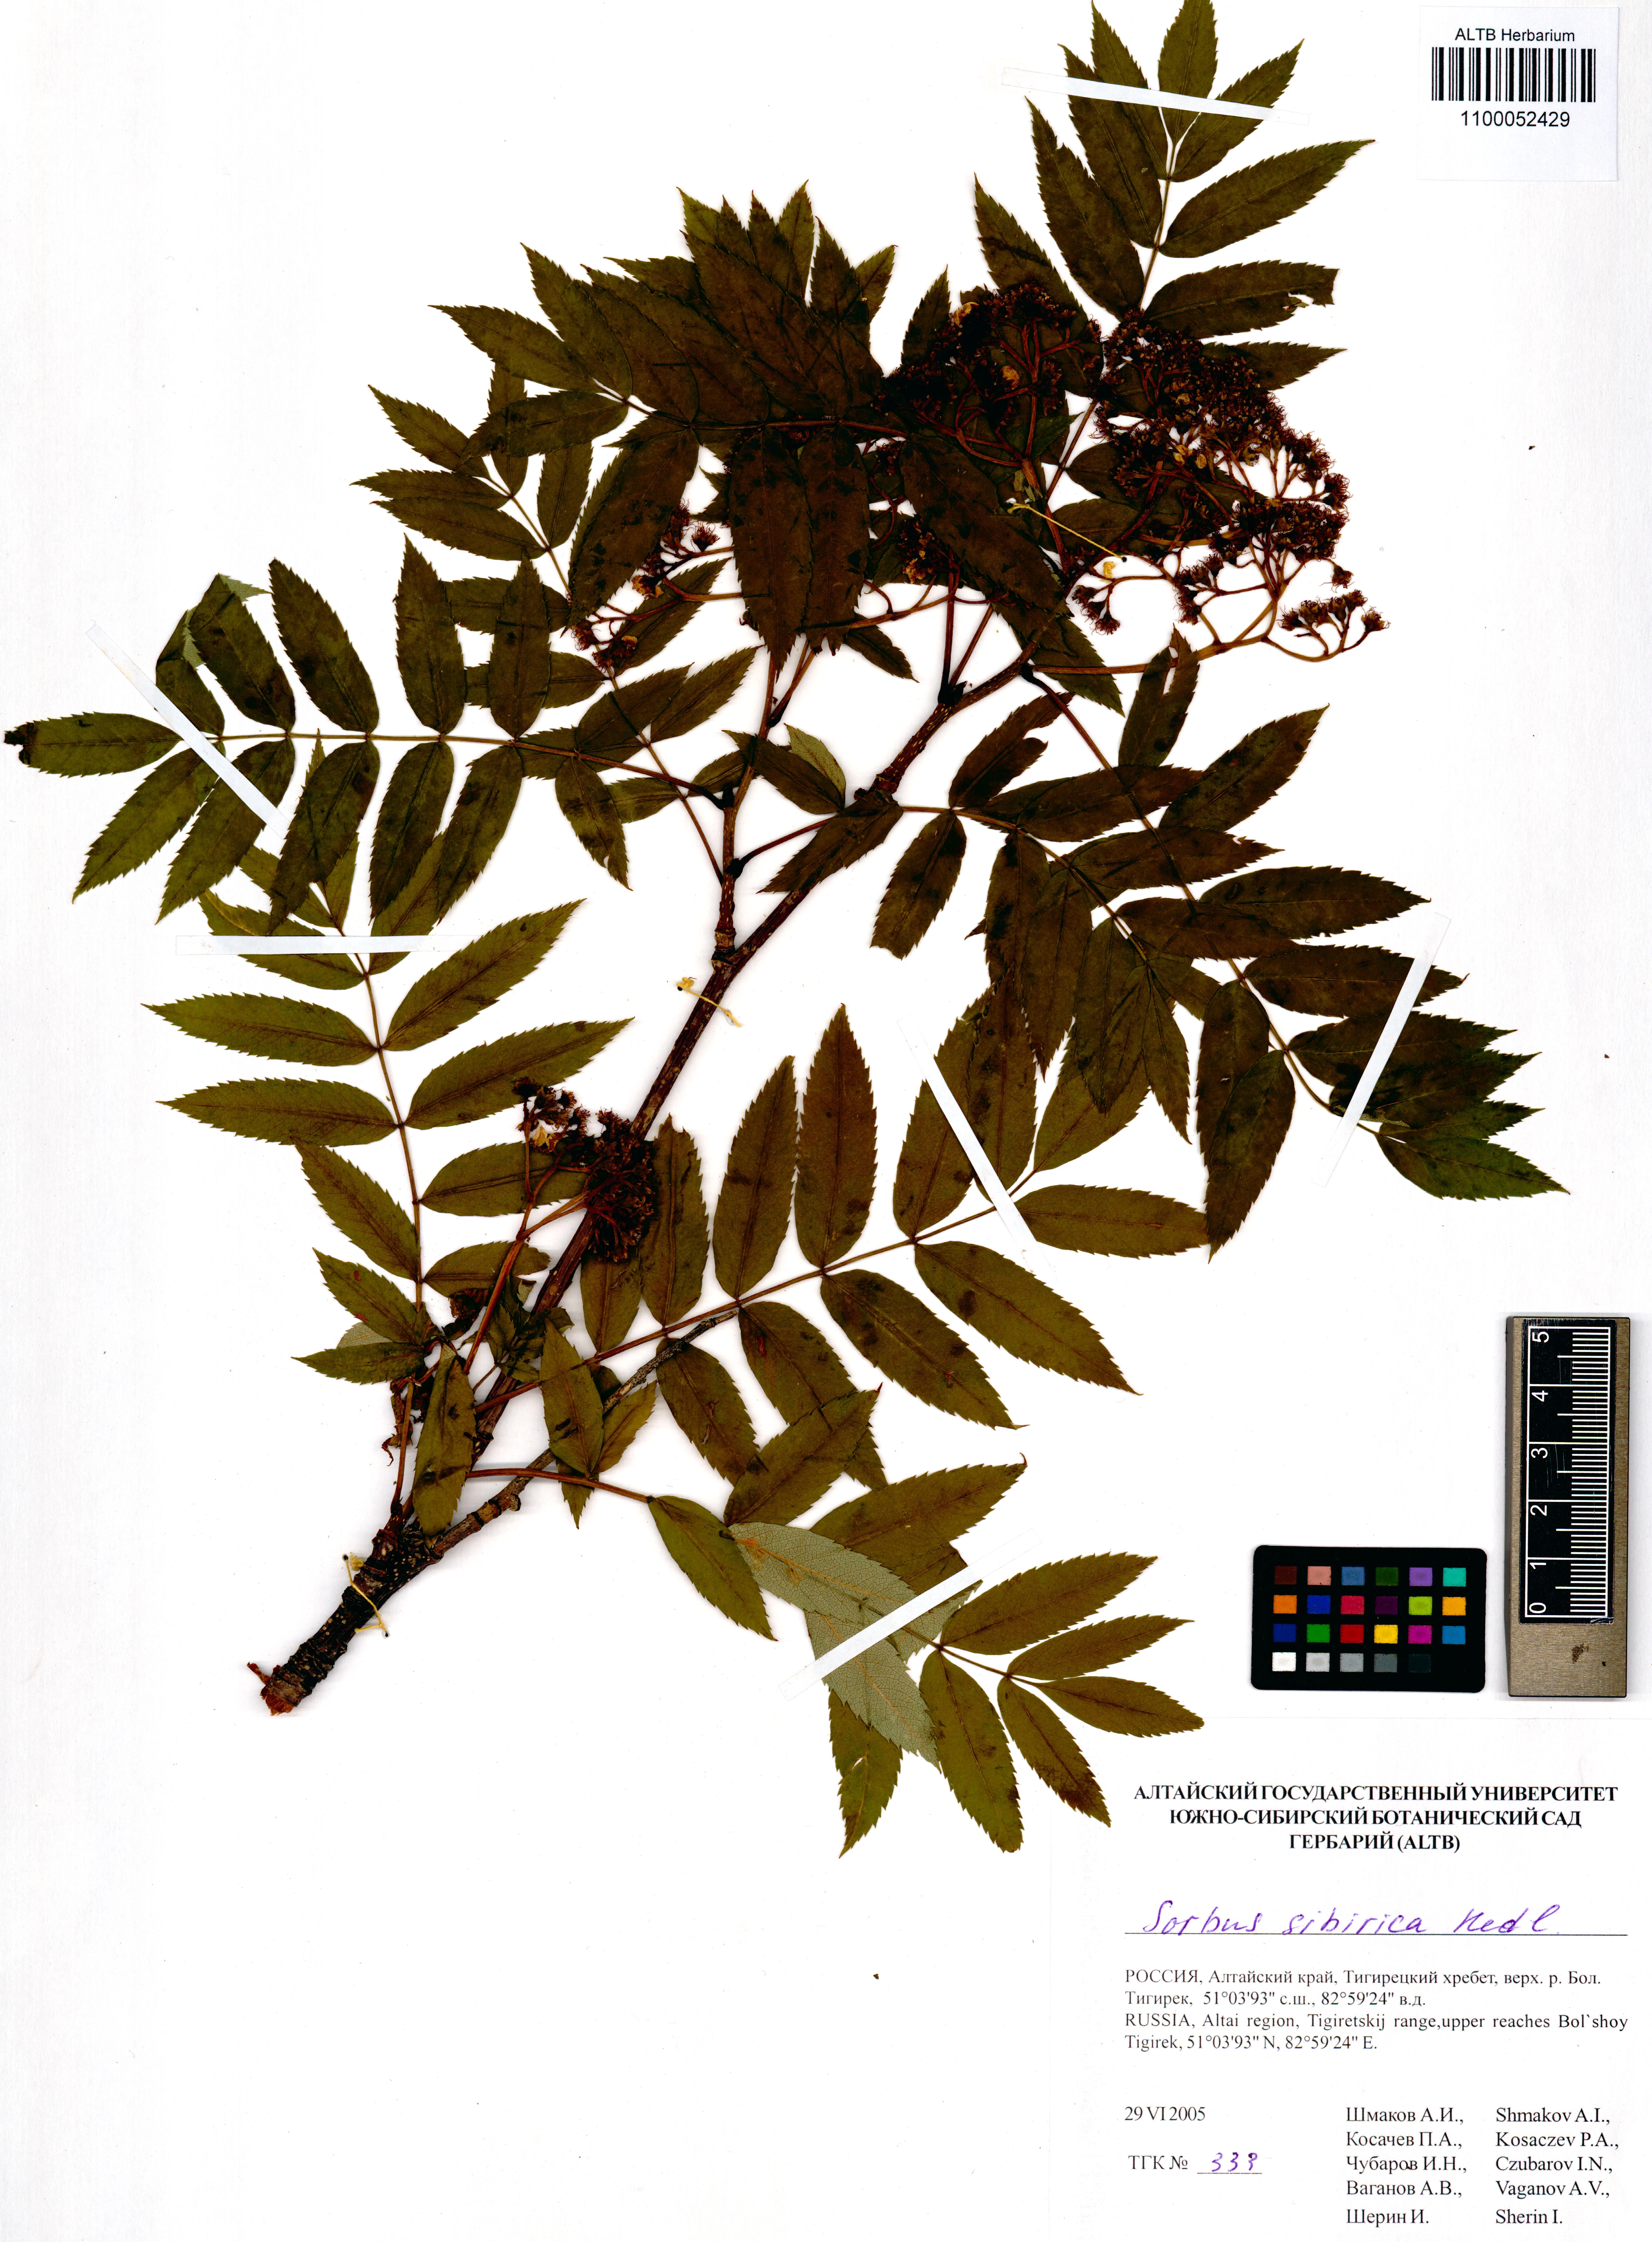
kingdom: Plantae
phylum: Tracheophyta
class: Magnoliopsida
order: Rosales
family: Rosaceae
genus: Sorbus
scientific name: Sorbus aucuparia
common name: Rowan
